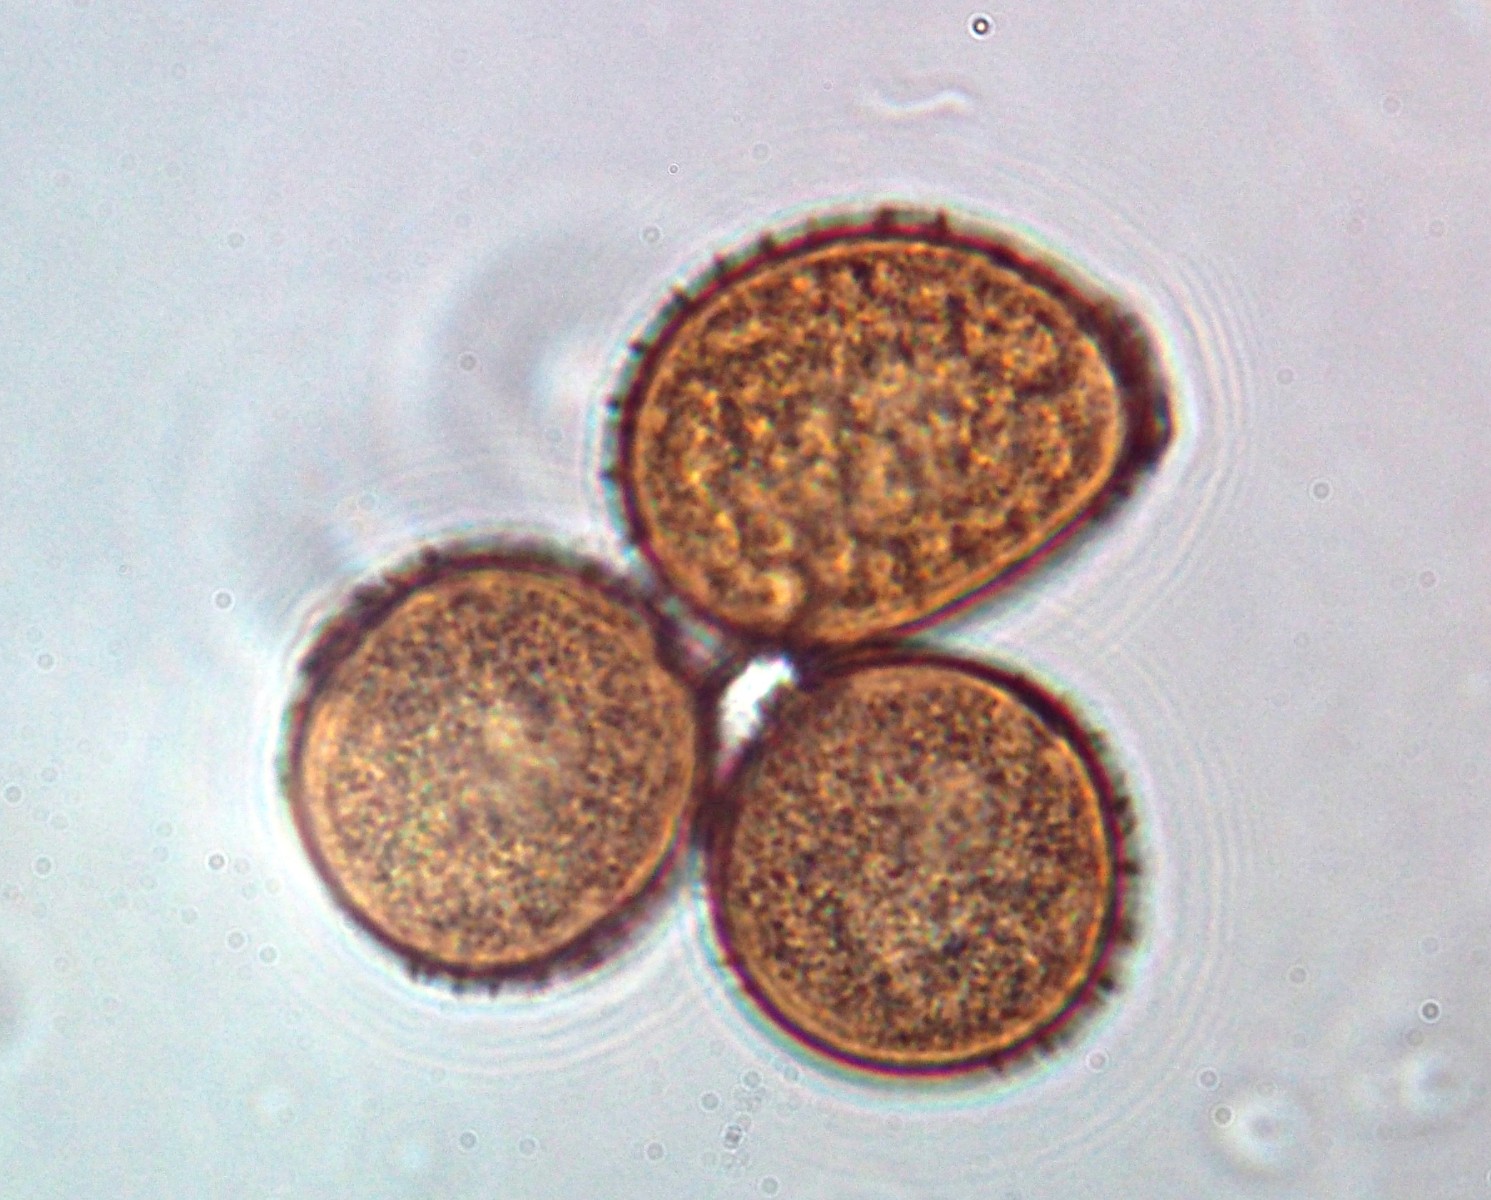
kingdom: Fungi
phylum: Basidiomycota
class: Pucciniomycetes
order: Pucciniales
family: Pucciniaceae
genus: Uromyces
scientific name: Uromyces rumicis
